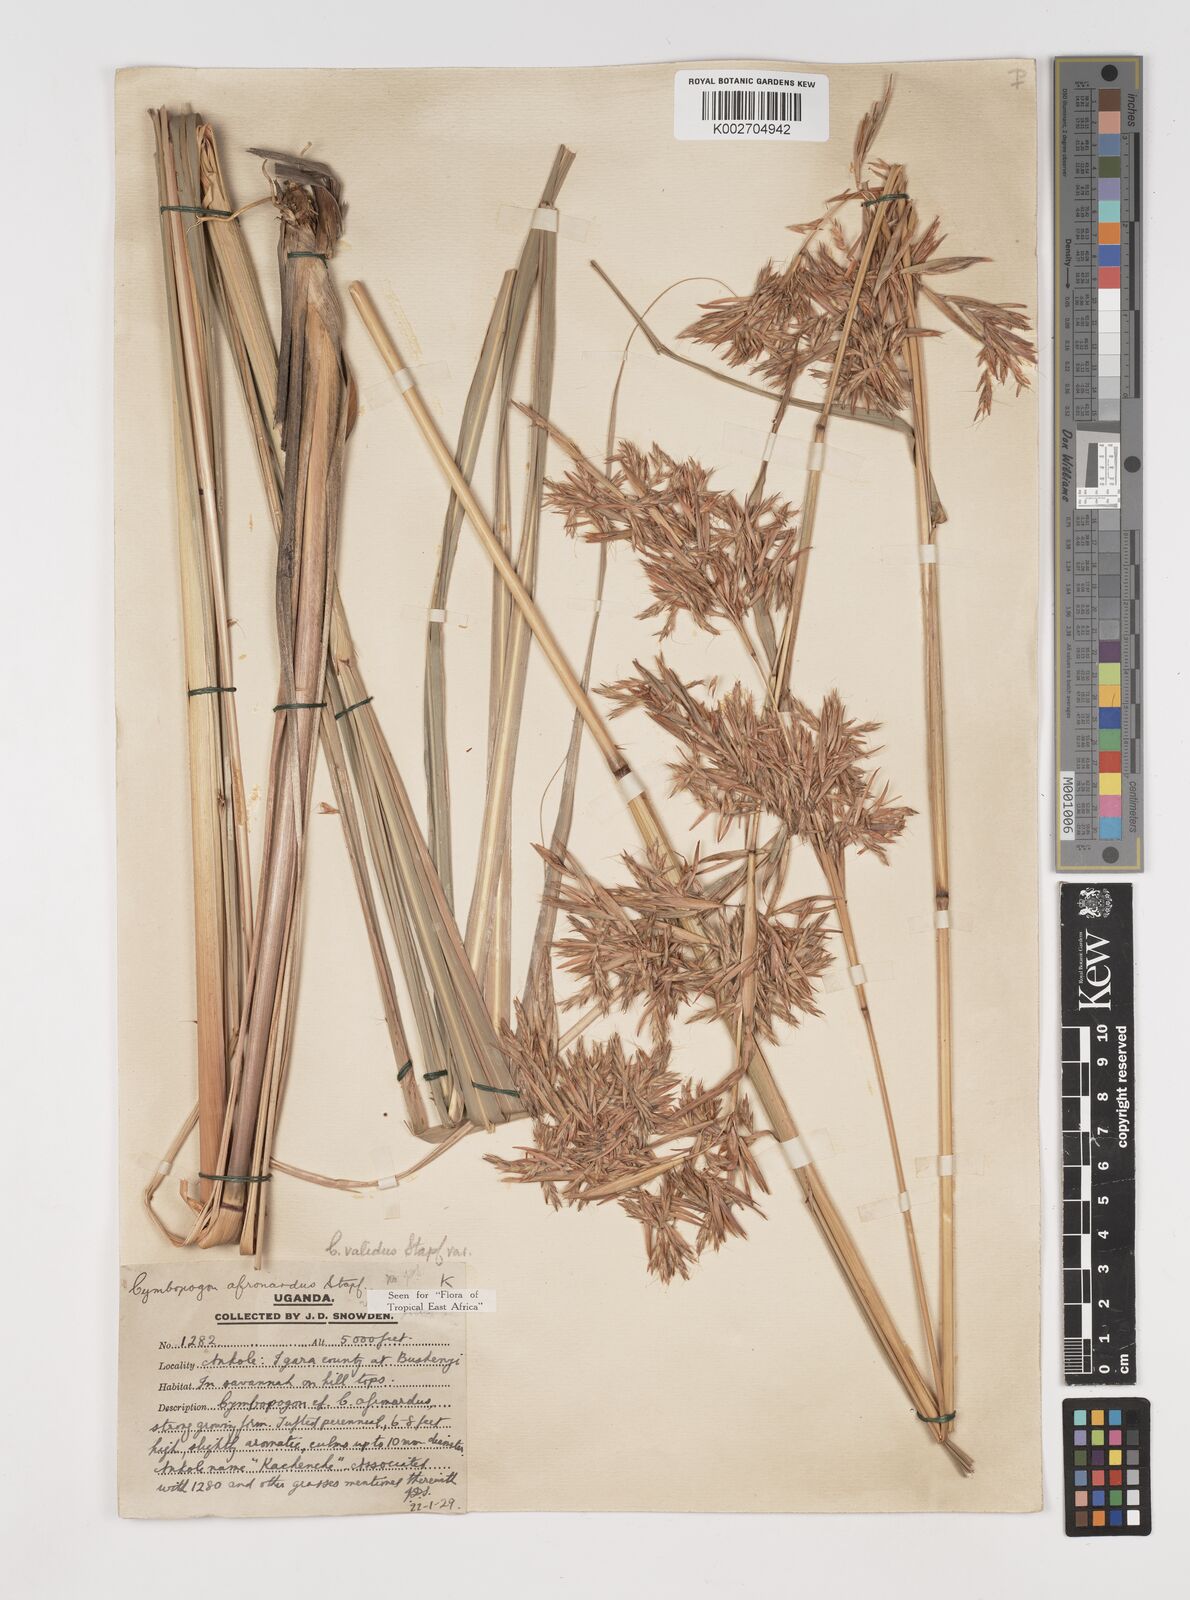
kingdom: Plantae
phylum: Tracheophyta
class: Liliopsida
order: Poales
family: Poaceae
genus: Cymbopogon
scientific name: Cymbopogon nardus
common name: Giant turpentine grass
